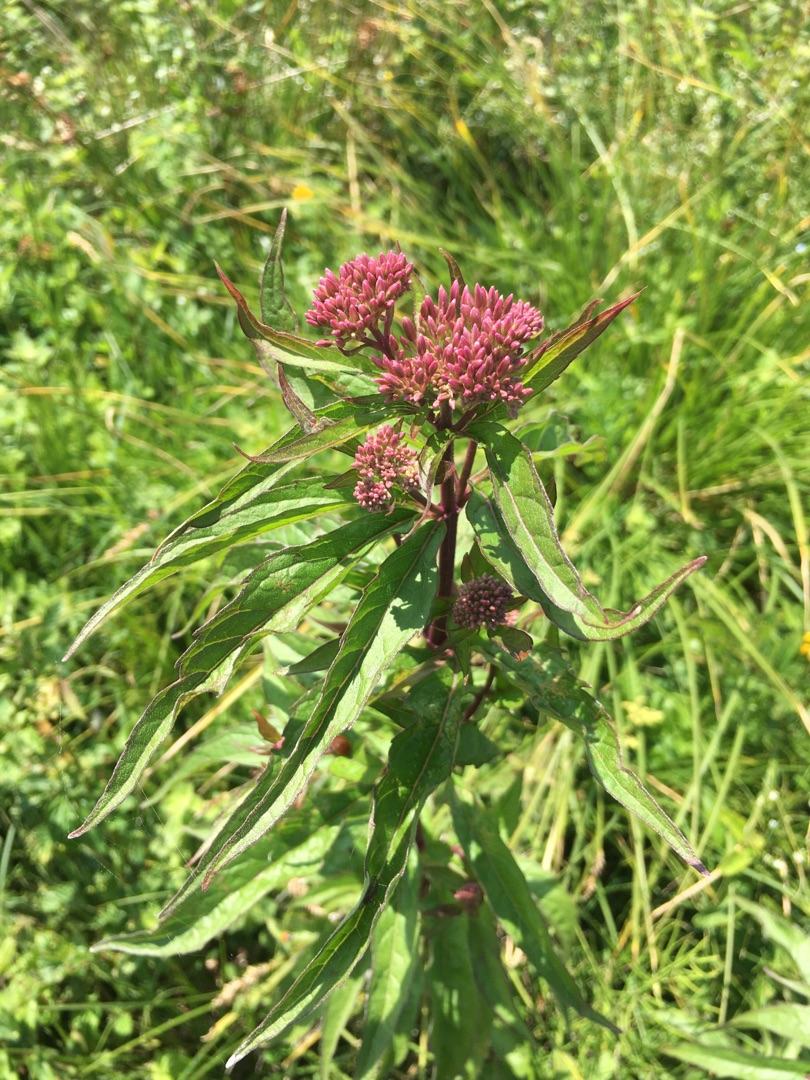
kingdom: Plantae
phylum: Tracheophyta
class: Magnoliopsida
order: Asterales
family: Asteraceae
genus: Eupatorium
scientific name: Eupatorium cannabinum
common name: Hjortetrøst
